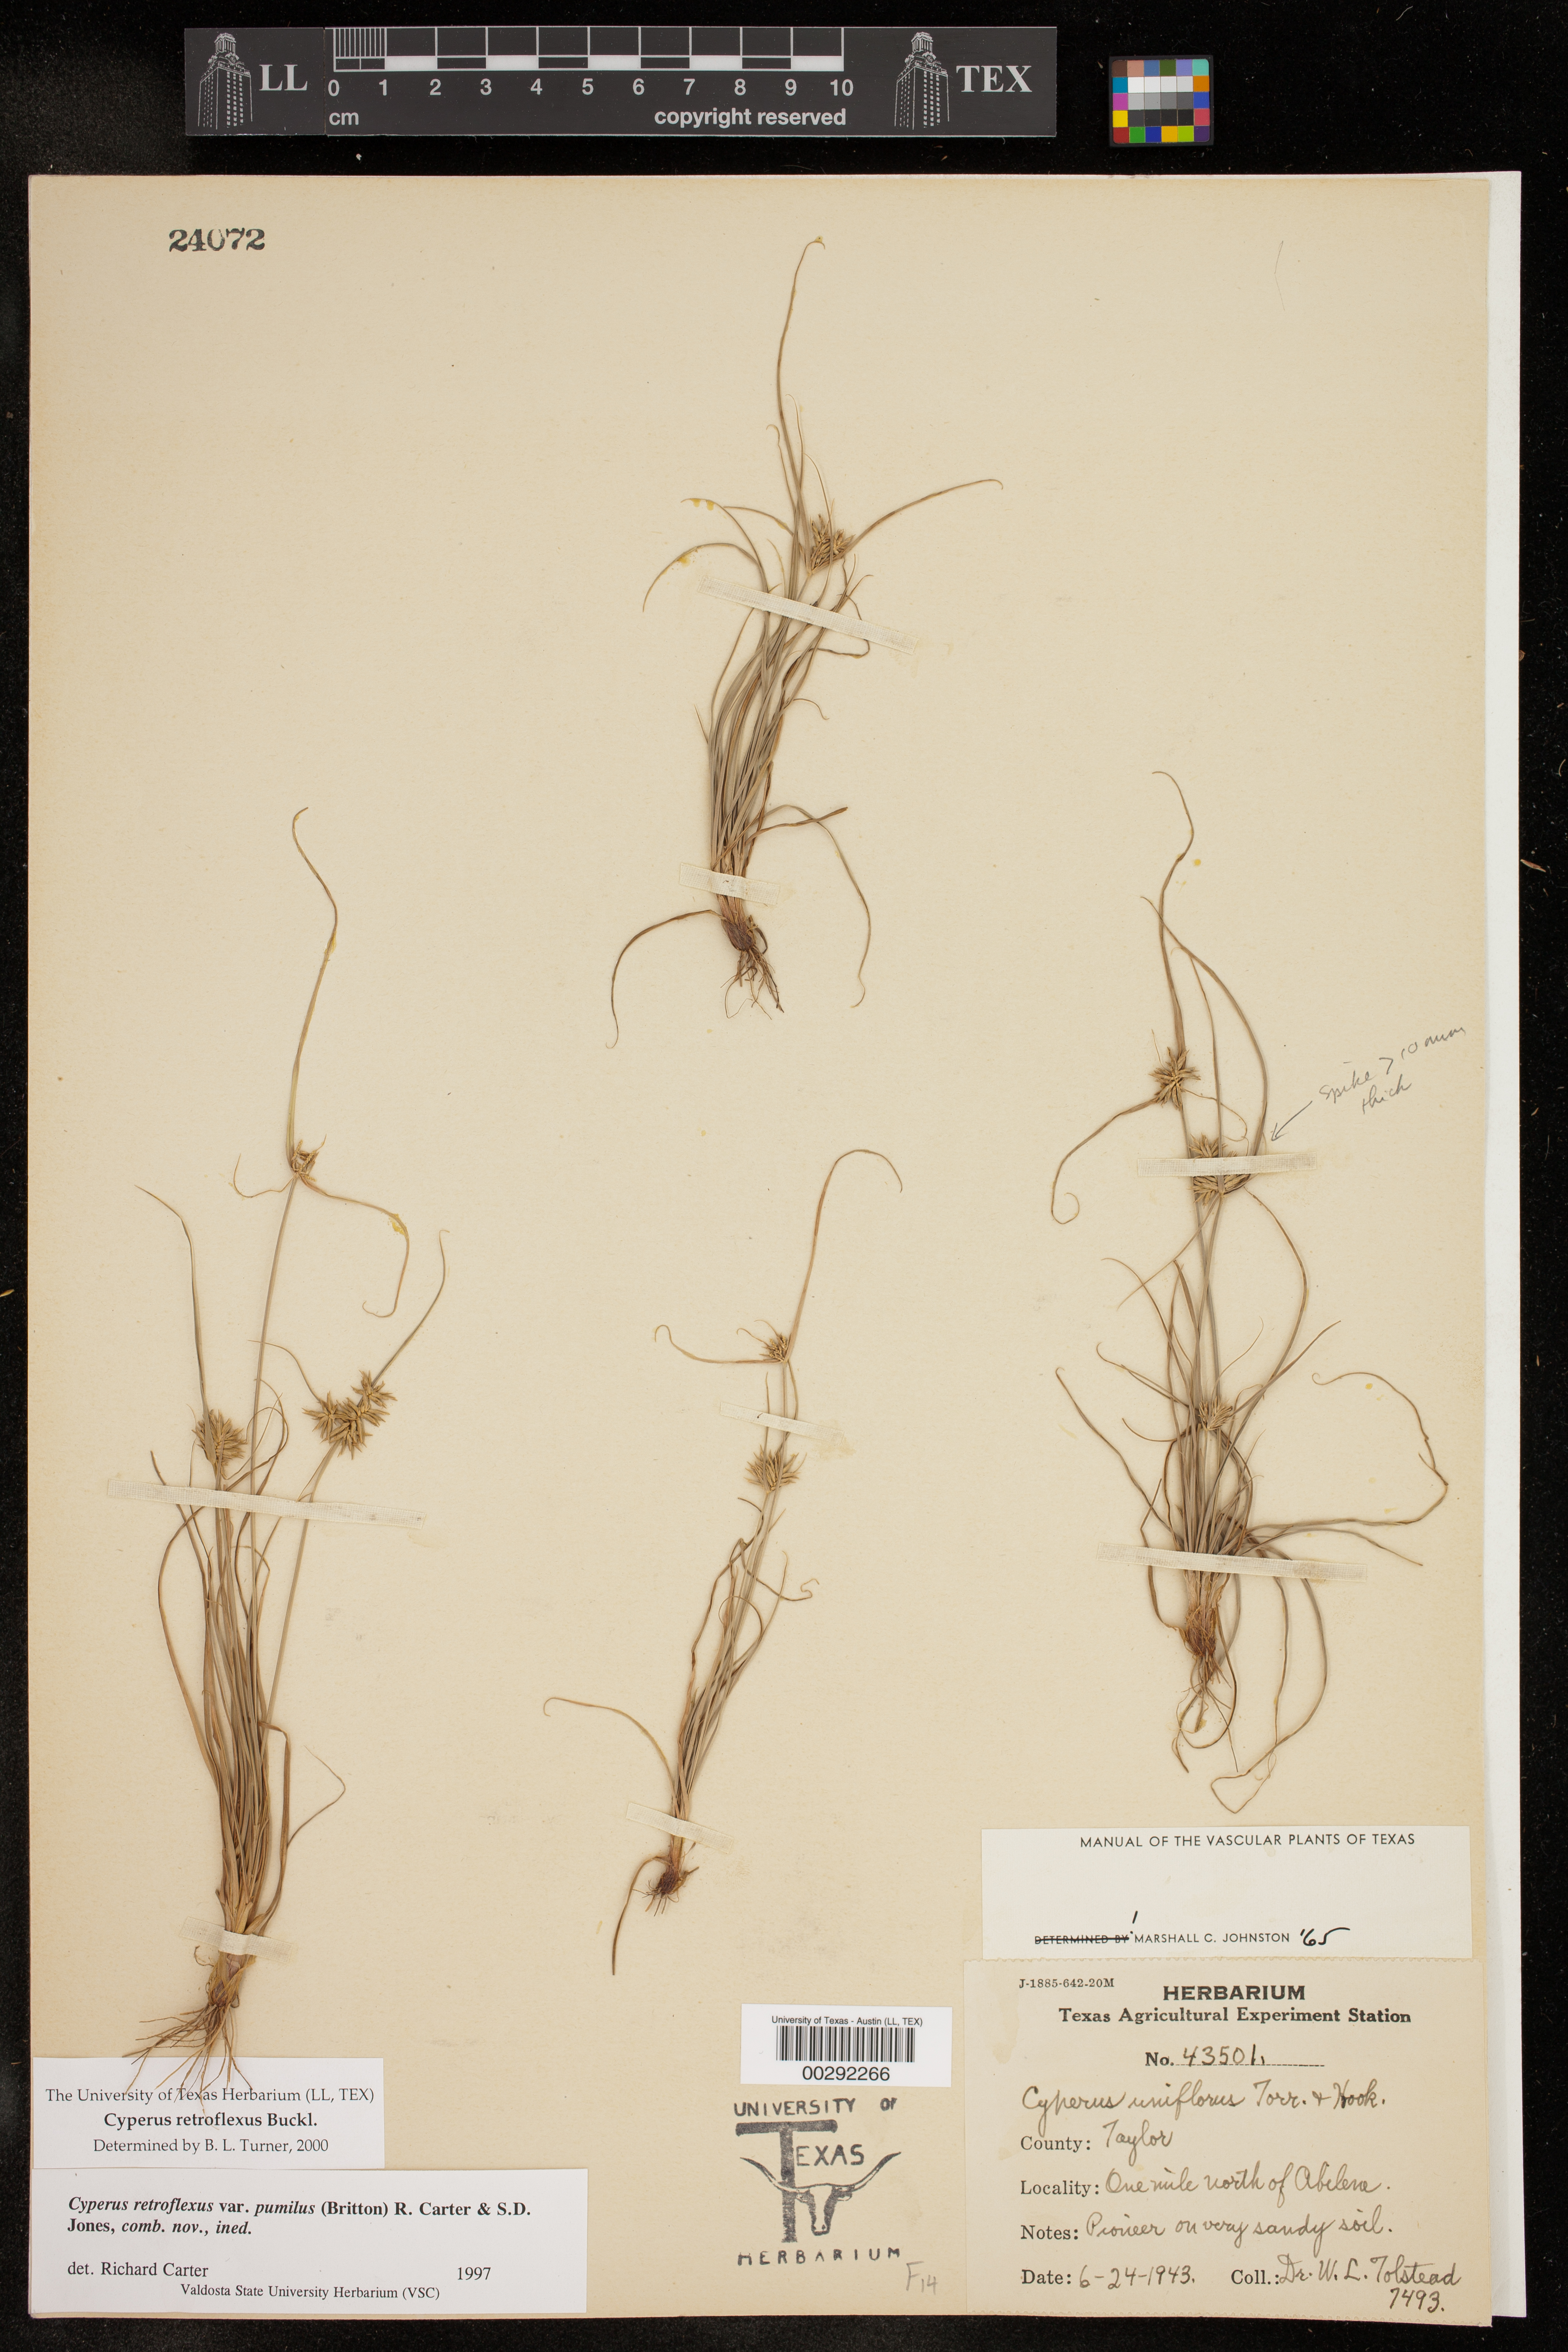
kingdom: Plantae
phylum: Tracheophyta
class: Liliopsida
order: Poales
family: Cyperaceae
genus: Cyperus
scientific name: Cyperus retroflexus
